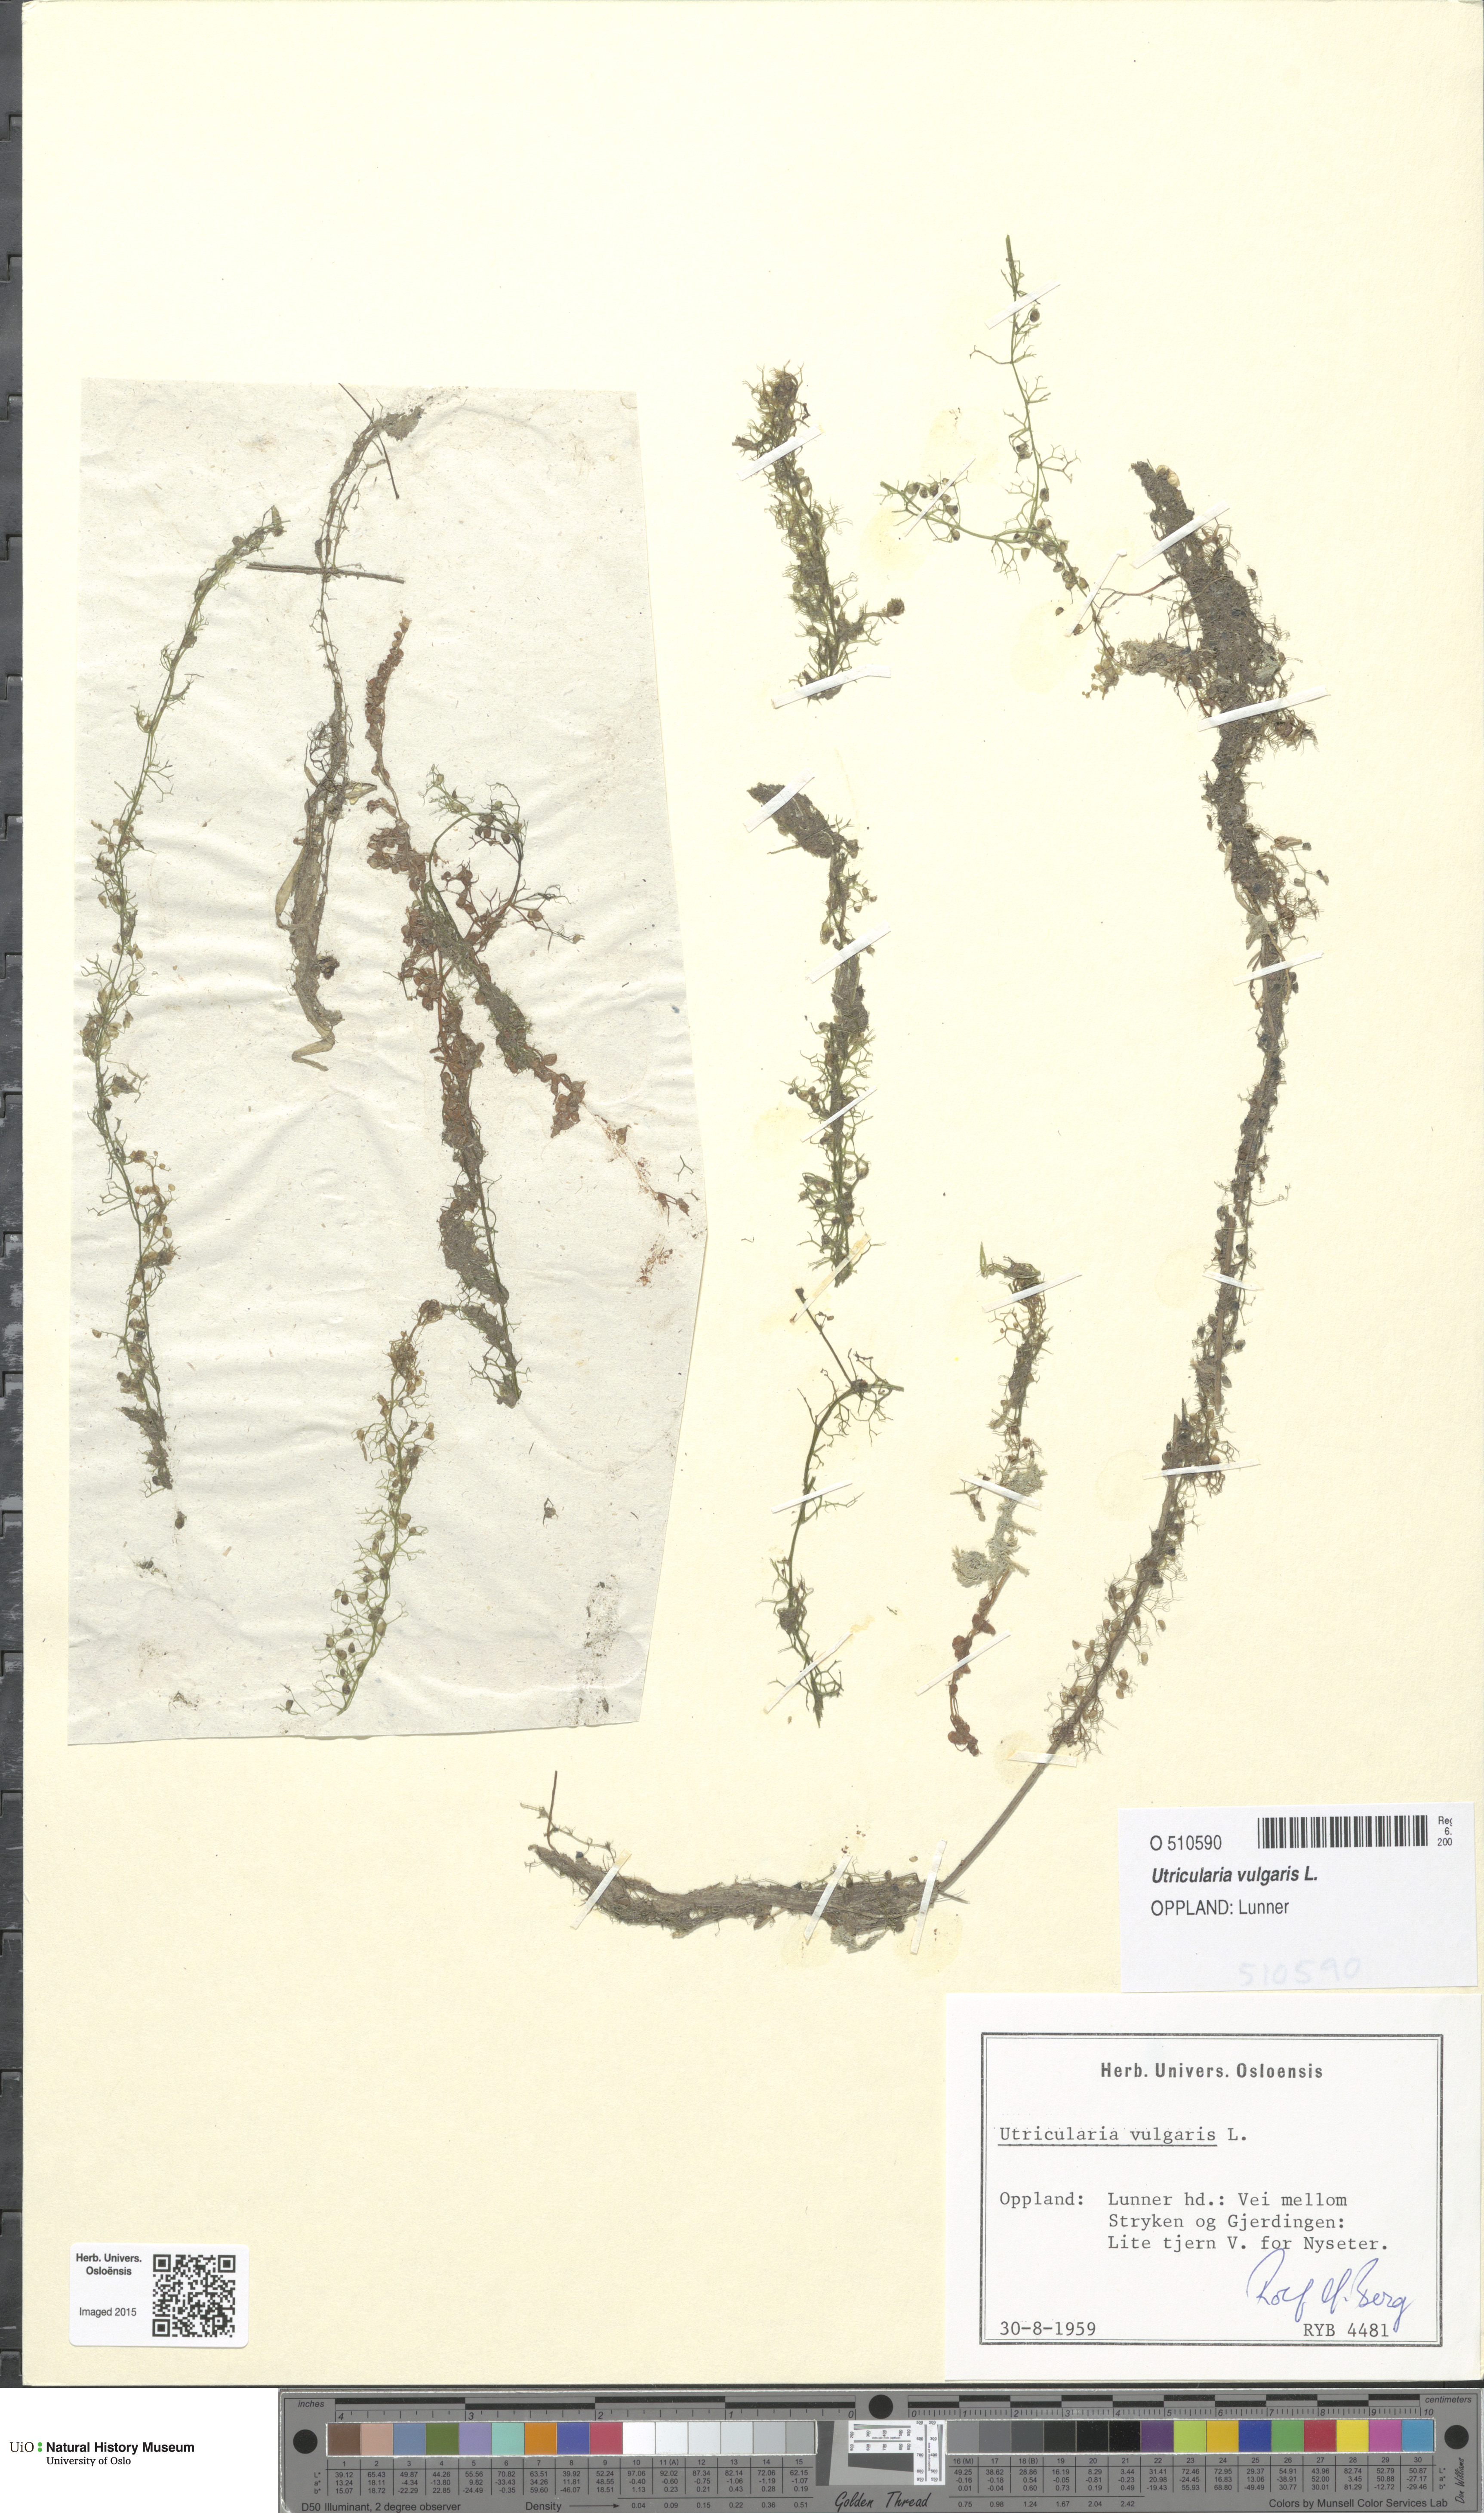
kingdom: Plantae
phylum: Tracheophyta
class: Magnoliopsida
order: Lamiales
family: Lentibulariaceae
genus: Utricularia
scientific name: Utricularia vulgaris
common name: Greater bladderwort
